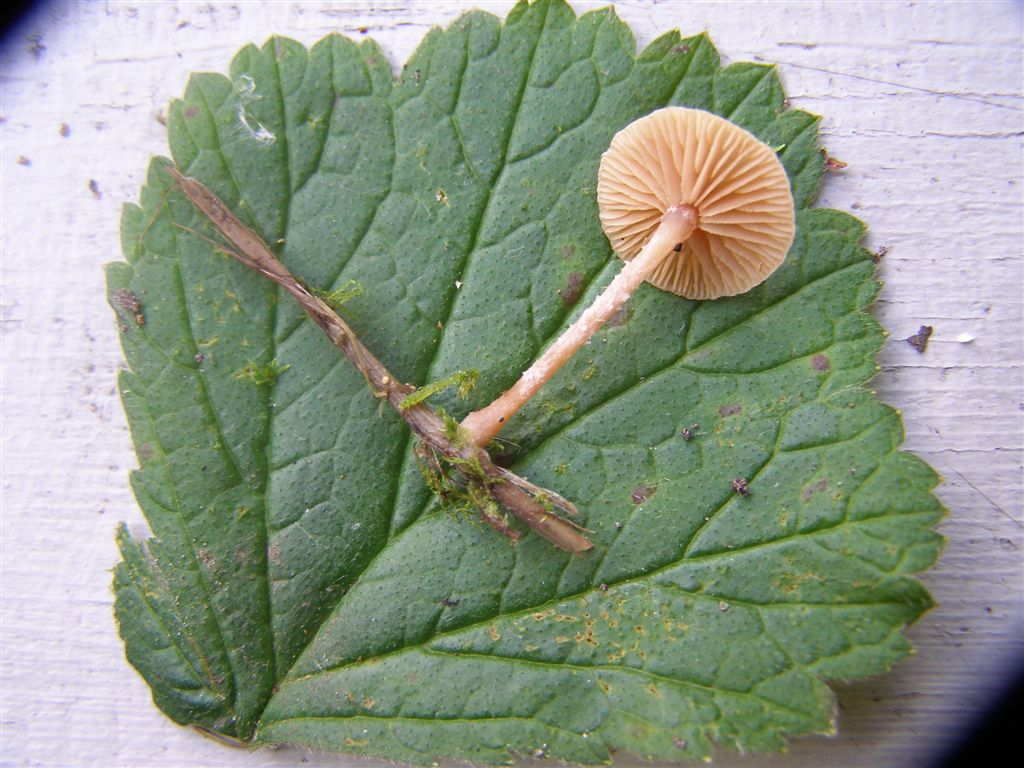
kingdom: Fungi
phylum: Basidiomycota
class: Agaricomycetes
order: Agaricales
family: Tubariaceae
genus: Flammulaster
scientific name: Flammulaster carpophilus
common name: blegrosa grynskælhat
